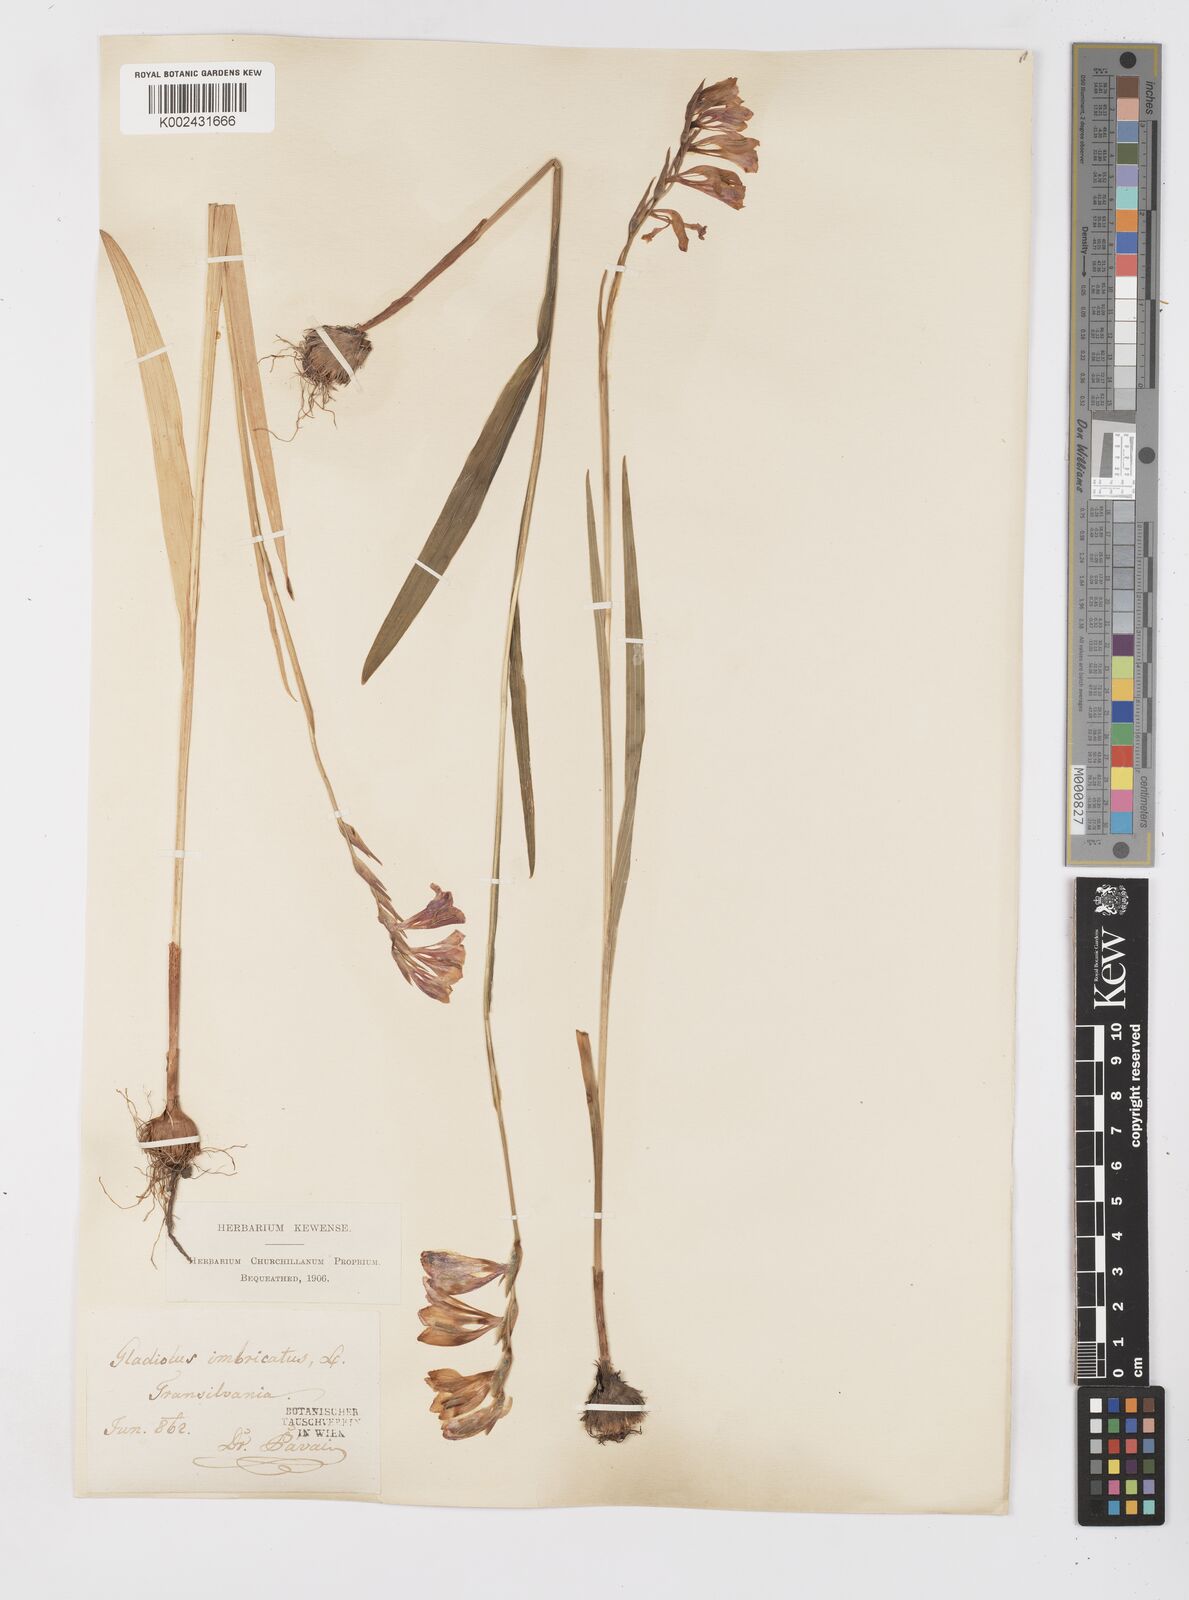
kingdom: Plantae
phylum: Tracheophyta
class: Liliopsida
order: Asparagales
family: Iridaceae
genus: Gladiolus
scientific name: Gladiolus imbricatus
